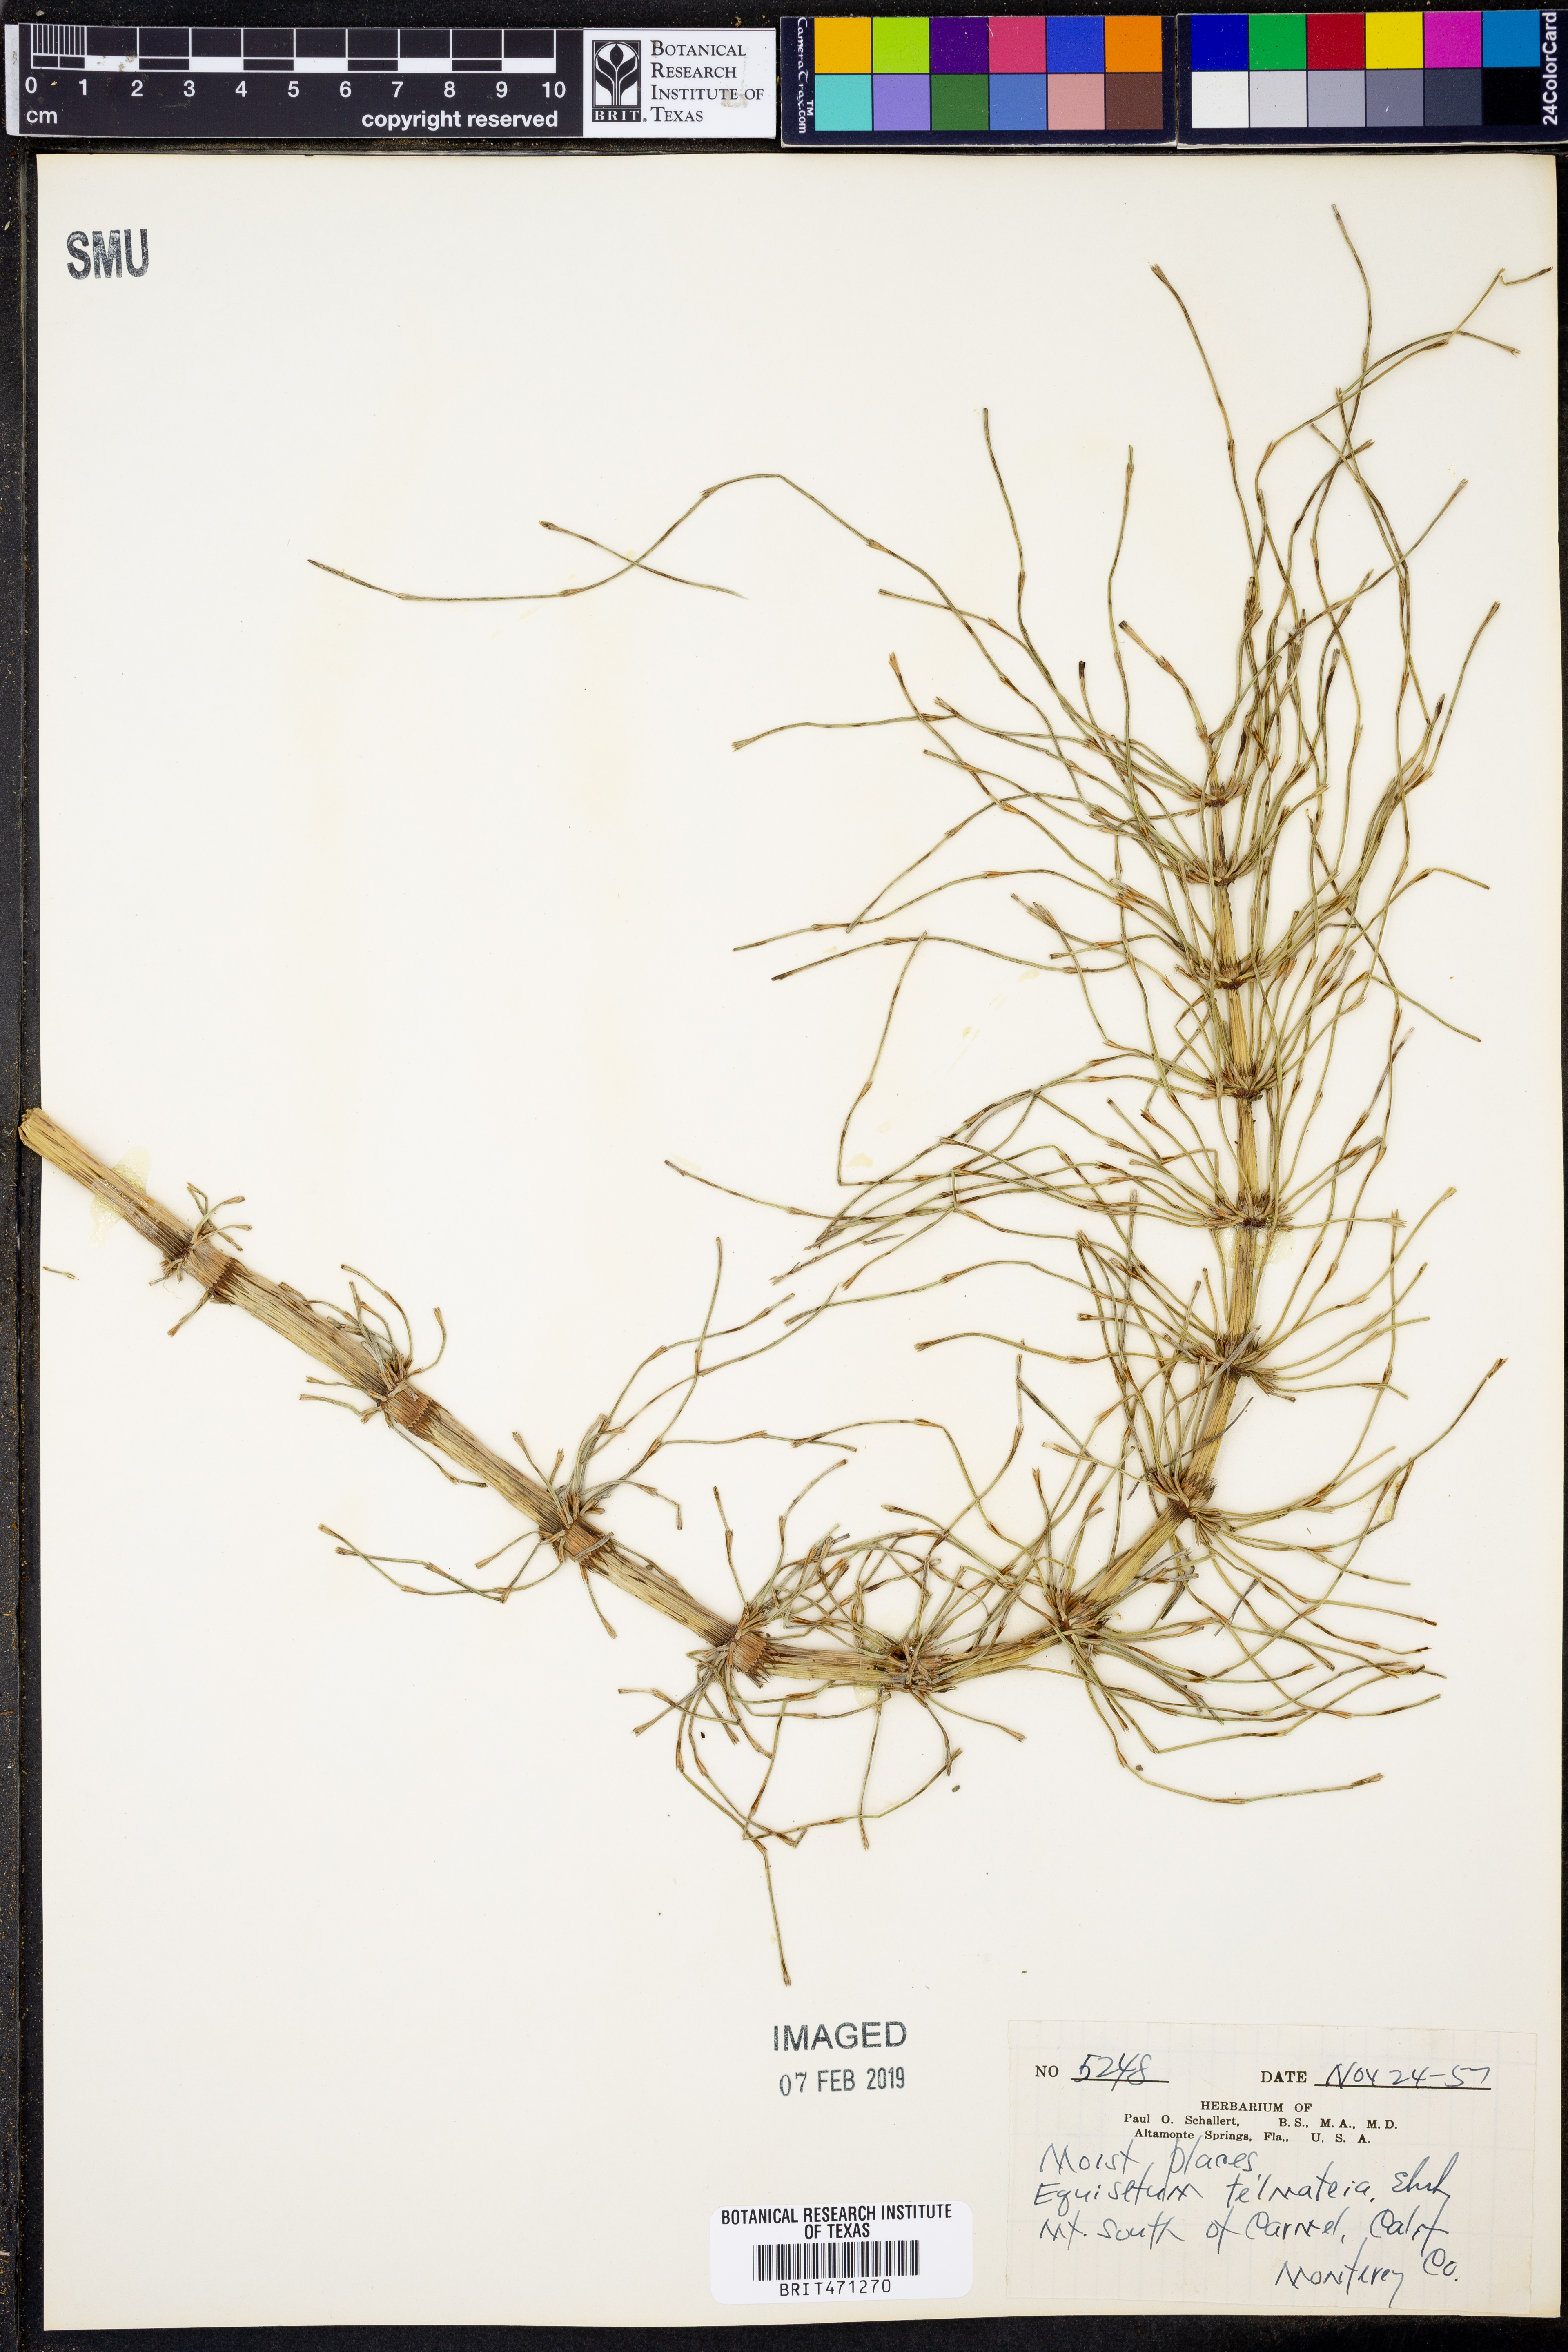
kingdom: Plantae
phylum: Tracheophyta
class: Polypodiopsida
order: Equisetales
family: Equisetaceae
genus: Equisetum
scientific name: Equisetum telmateia
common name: Great horsetail
